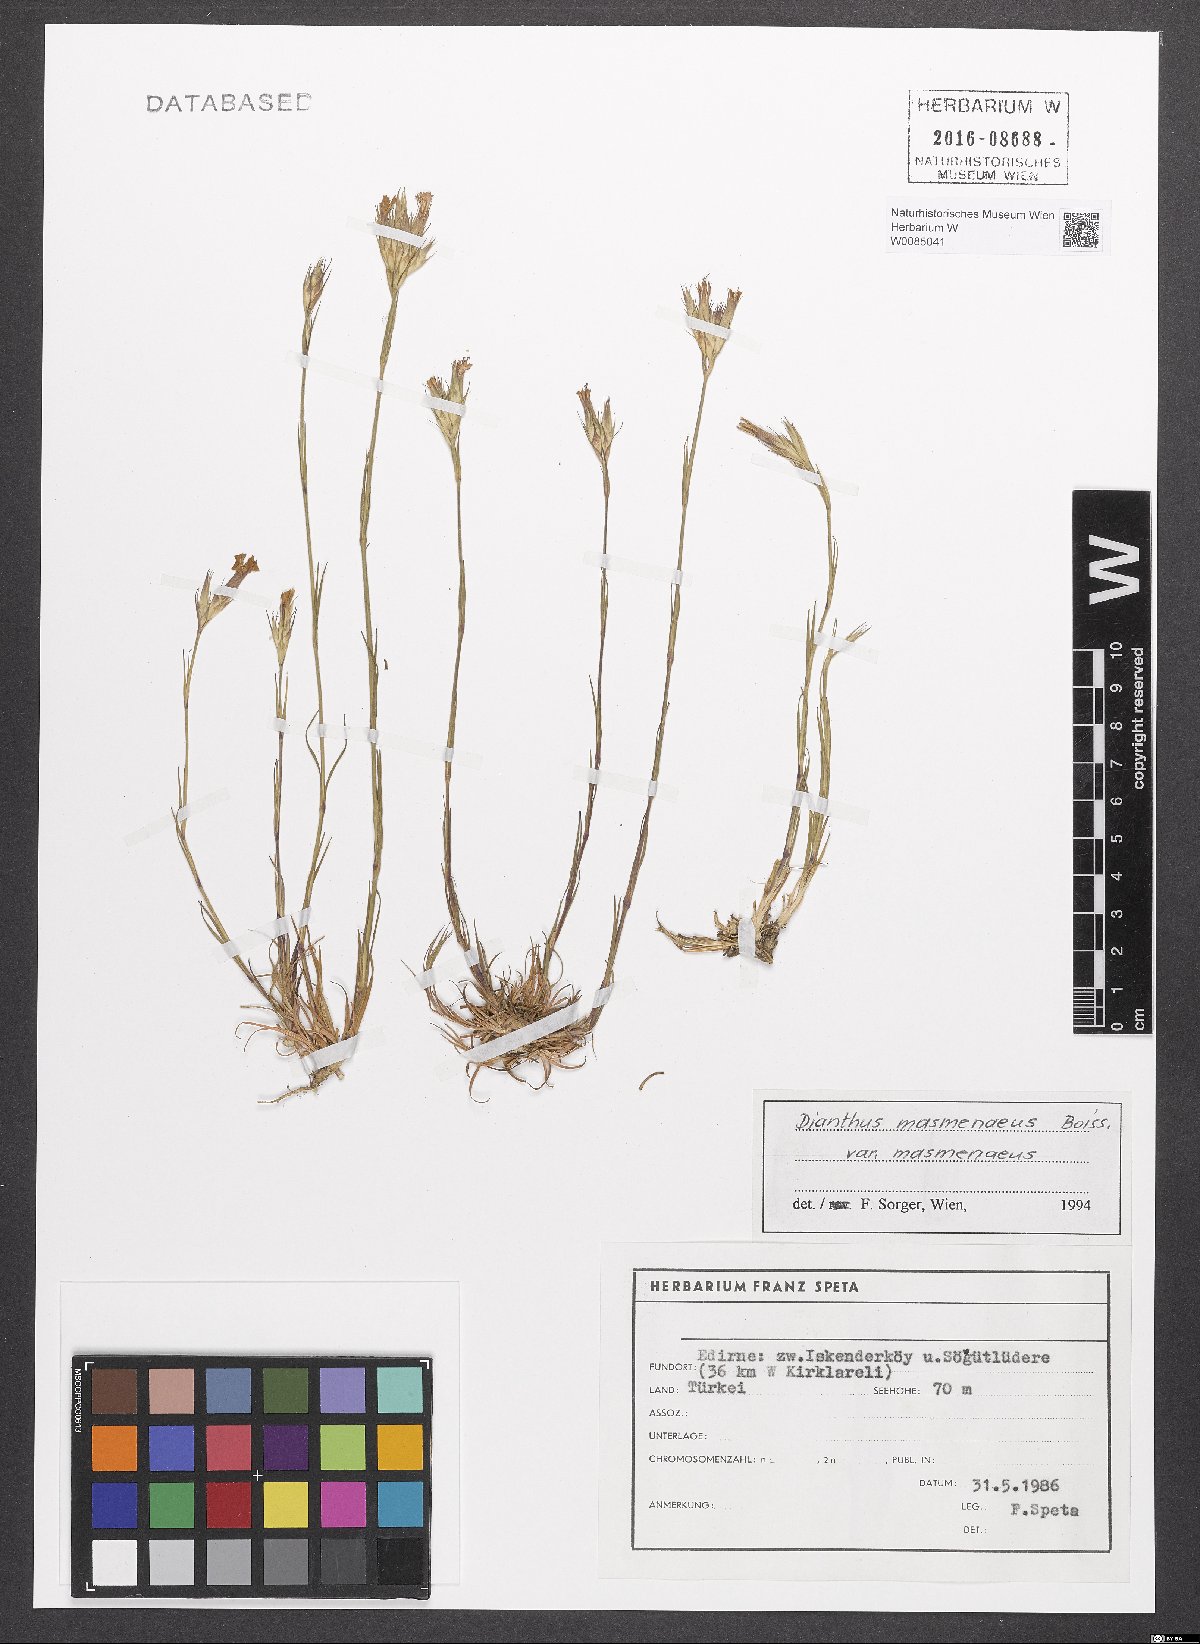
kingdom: Plantae
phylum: Tracheophyta
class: Magnoliopsida
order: Caryophyllales
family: Caryophyllaceae
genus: Dianthus
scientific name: Dianthus masmenaeus
